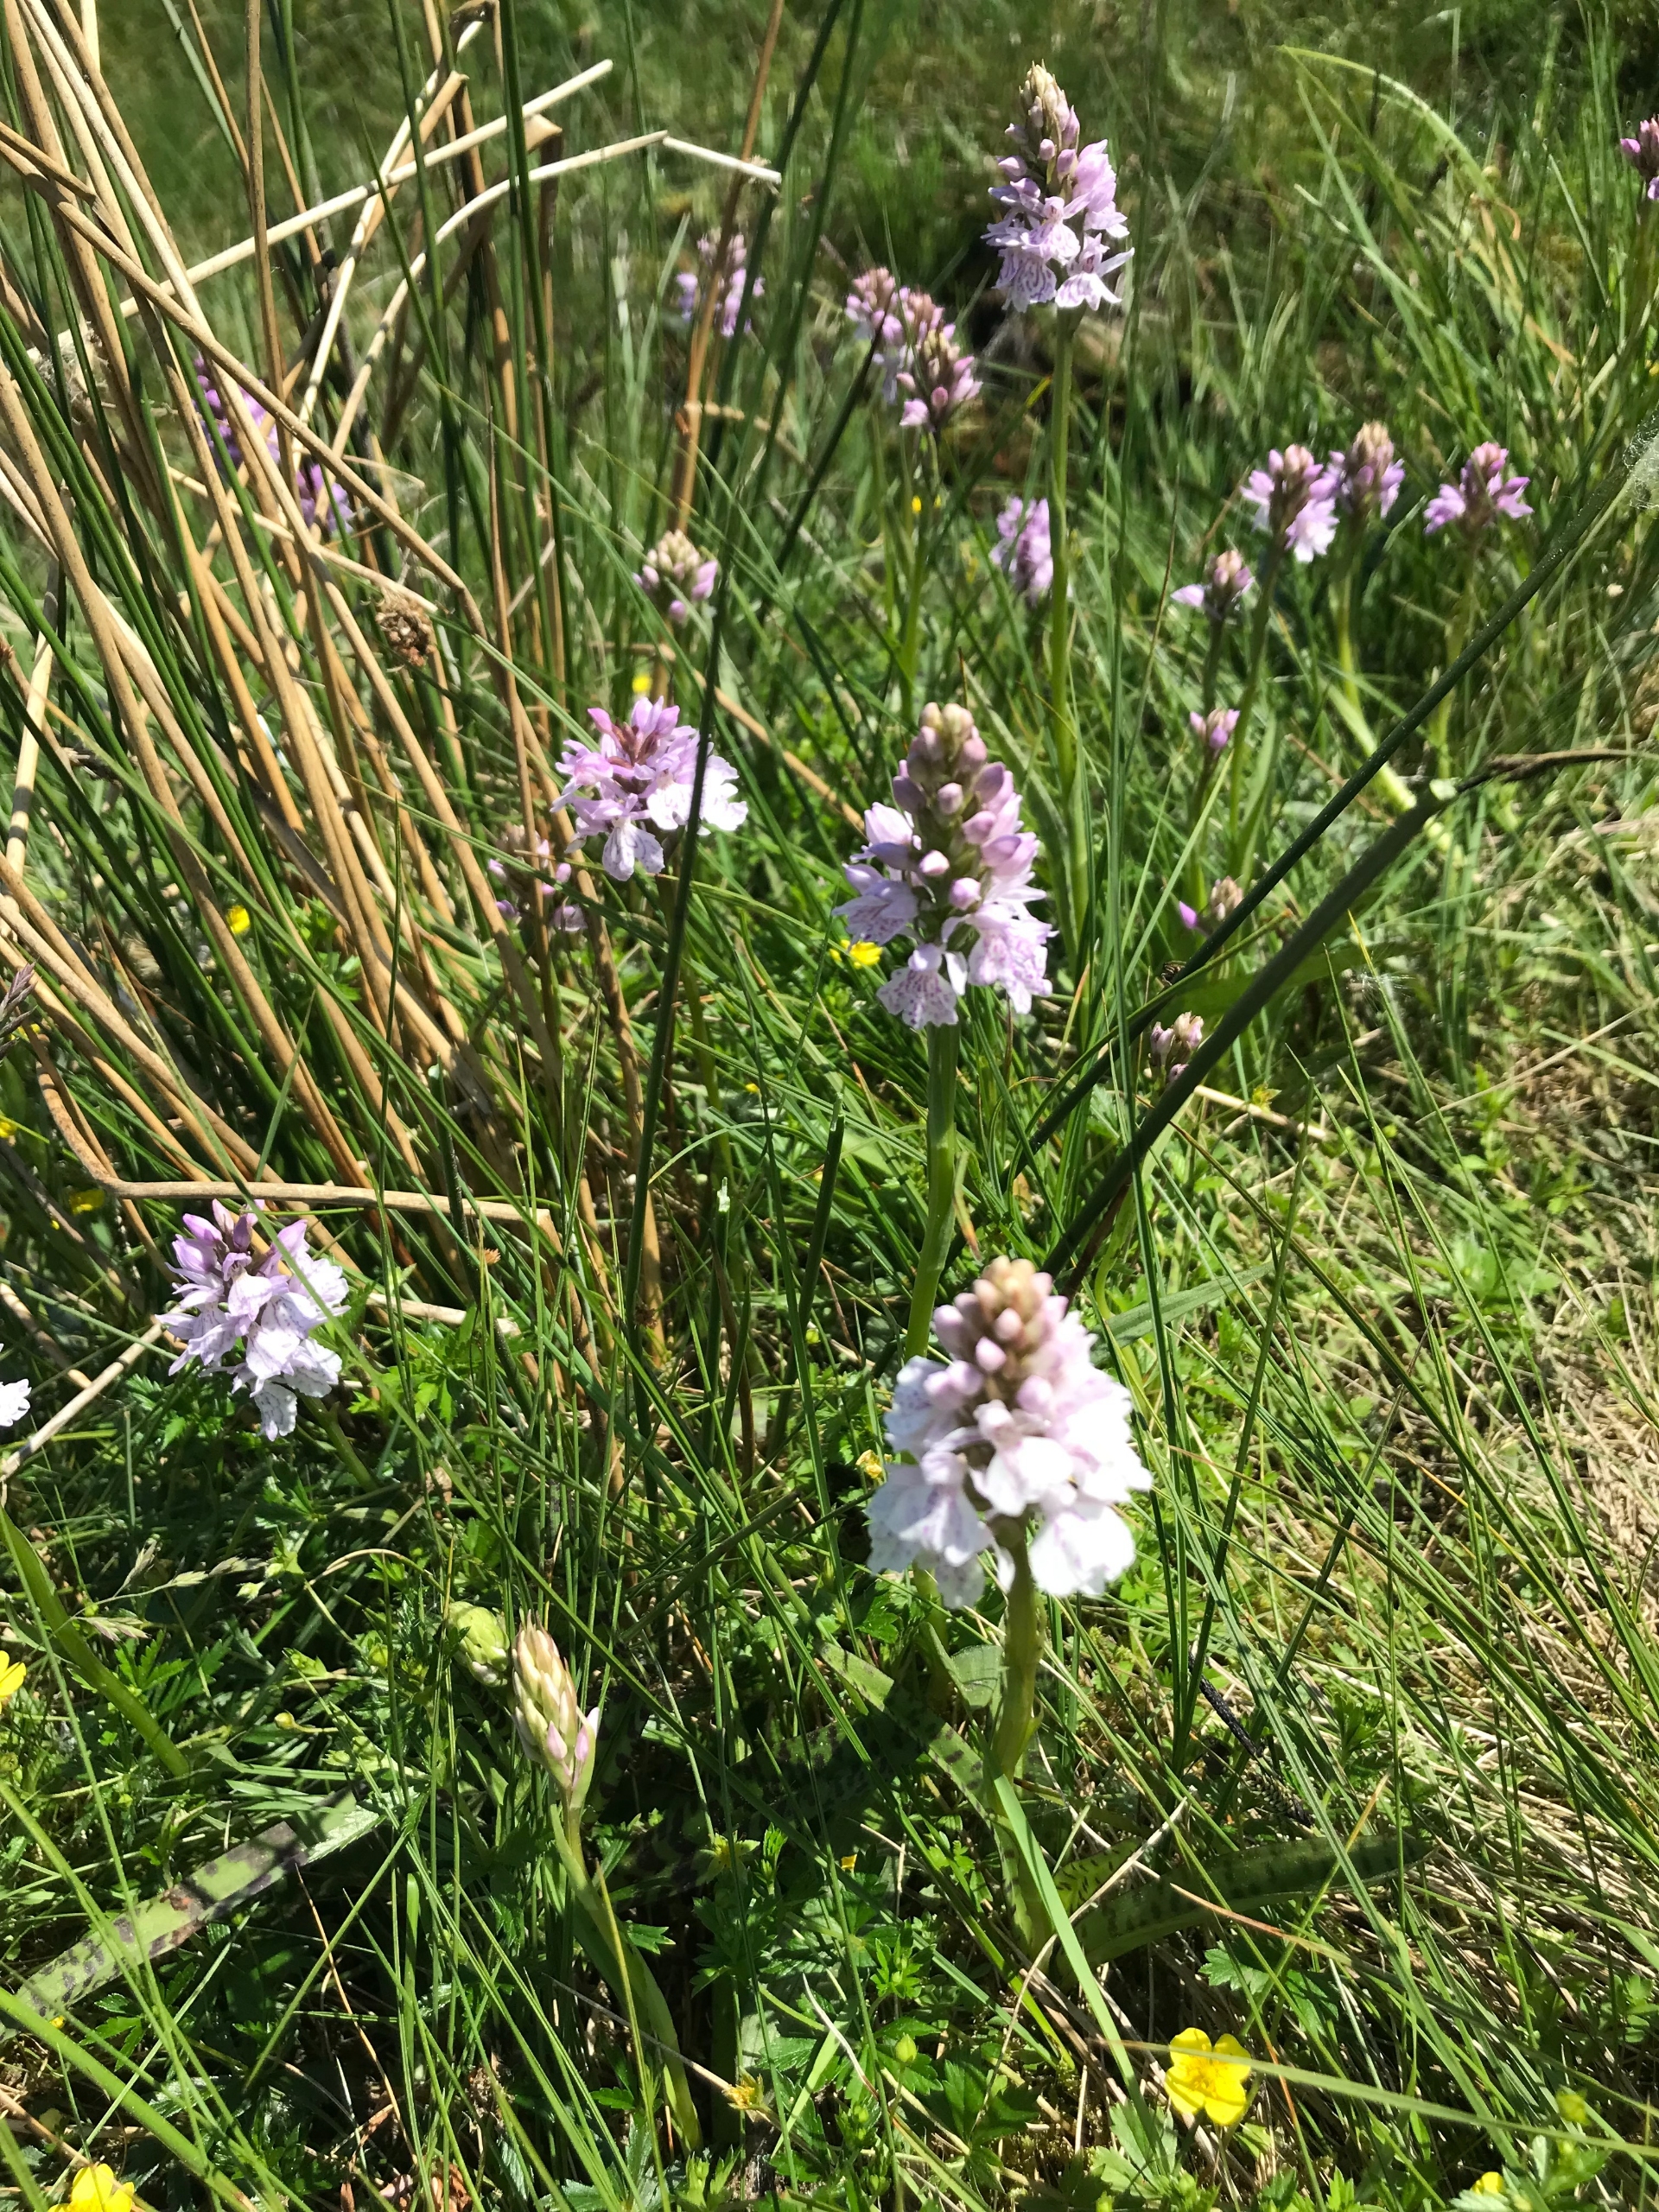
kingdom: Plantae
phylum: Tracheophyta
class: Liliopsida
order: Asparagales
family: Orchidaceae
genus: Dactylorhiza
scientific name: Dactylorhiza maculata
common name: Plettet gøgeurt
